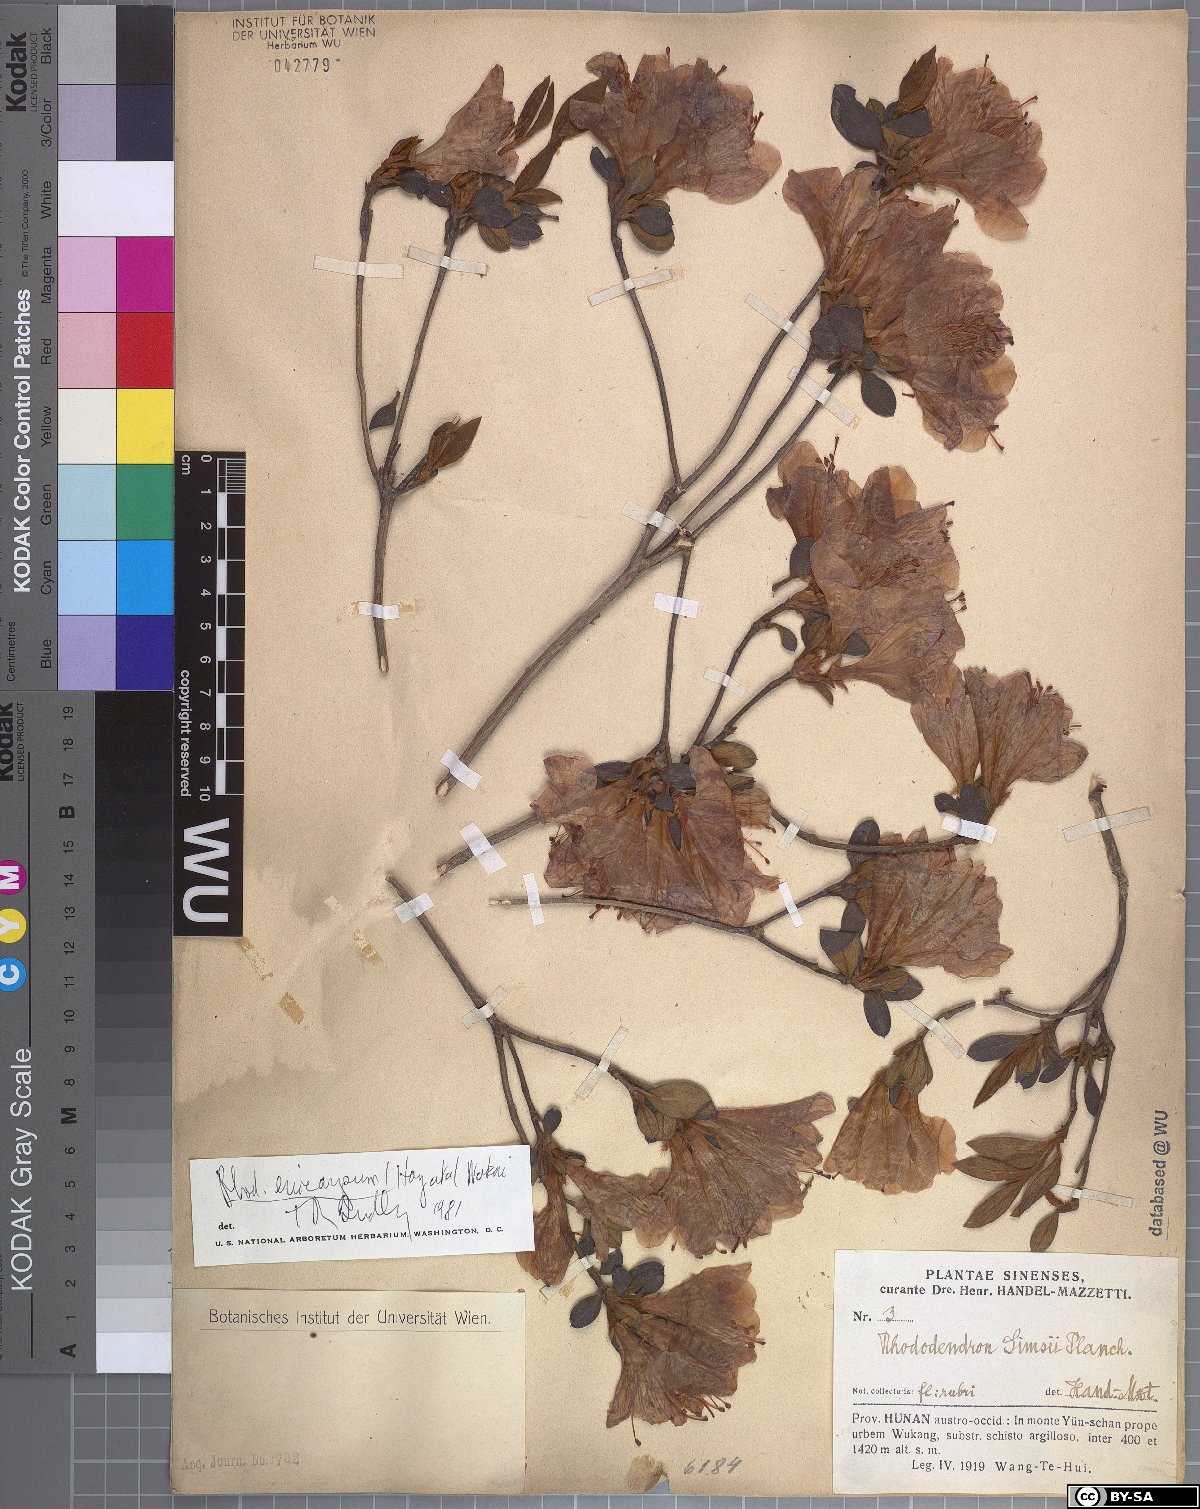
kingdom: Plantae
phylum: Tracheophyta
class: Magnoliopsida
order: Ericales
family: Ericaceae
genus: Rhododendron
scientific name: Rhododendron eriocarpum
